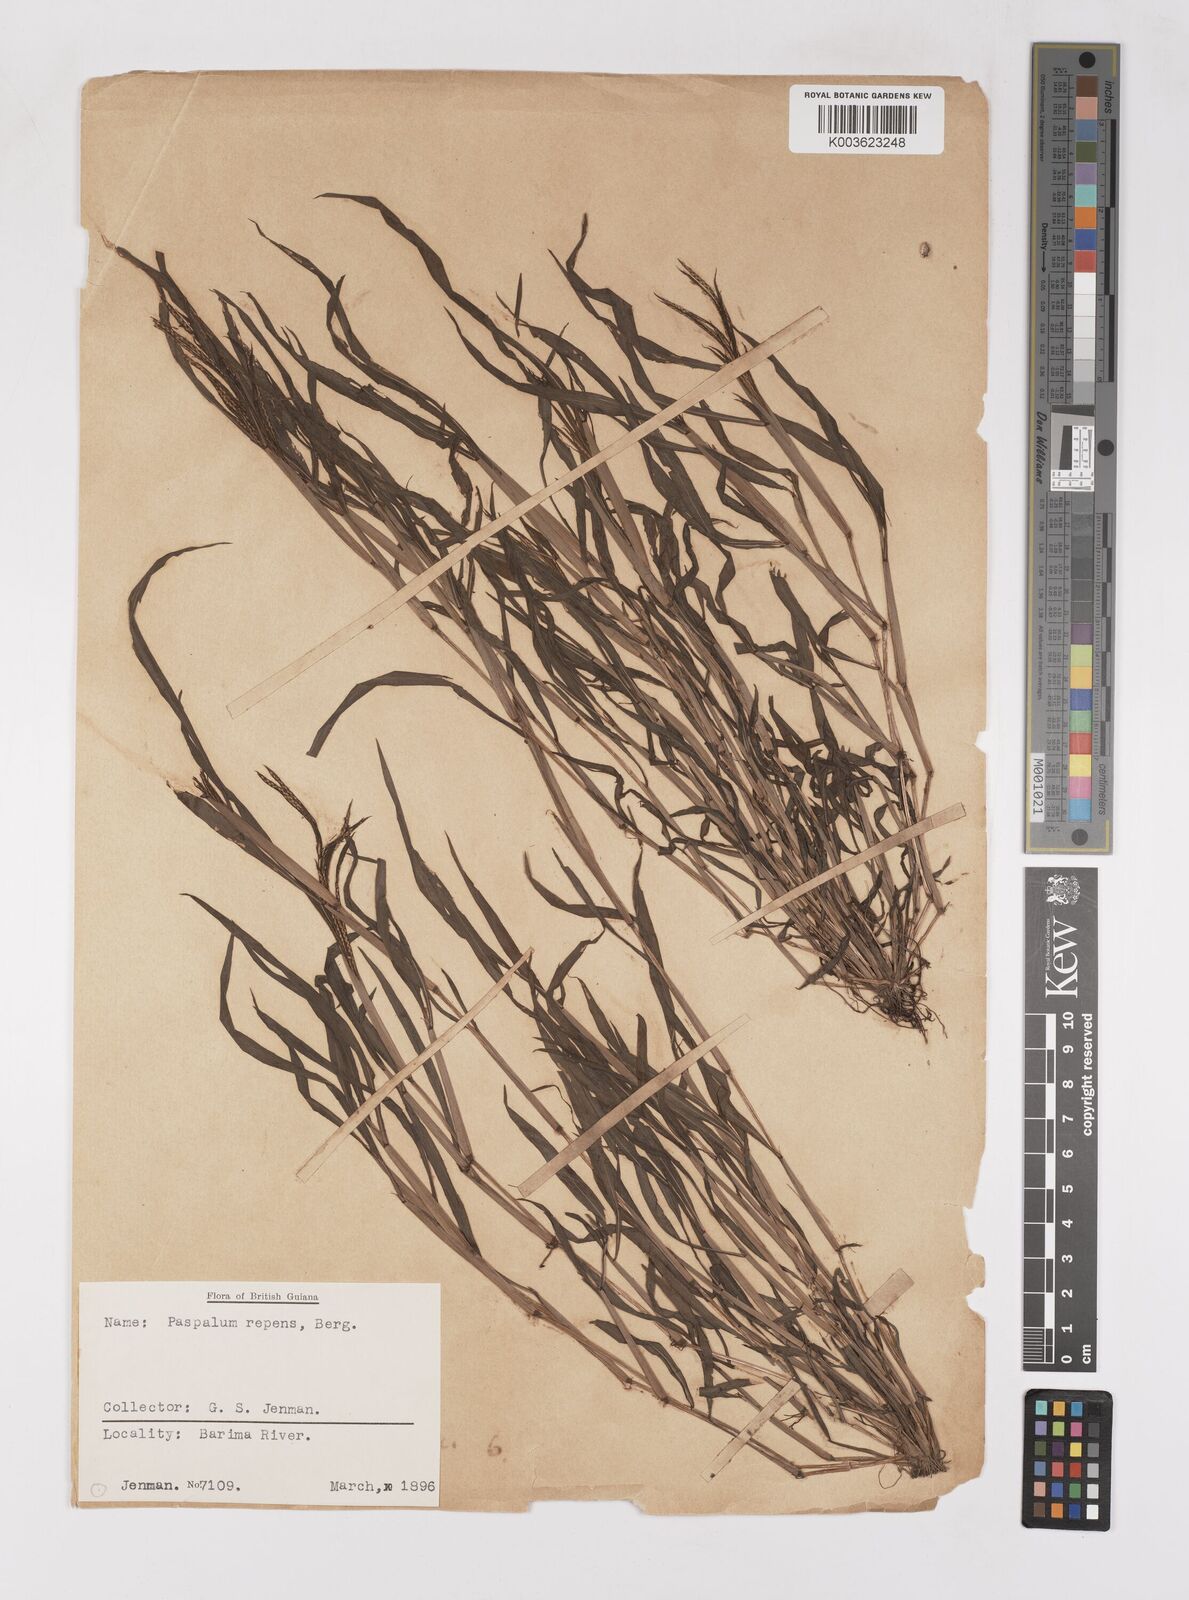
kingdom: Plantae
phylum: Tracheophyta
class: Liliopsida
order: Poales
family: Poaceae
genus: Paspalum
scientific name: Paspalum repens
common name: Water paspalum
